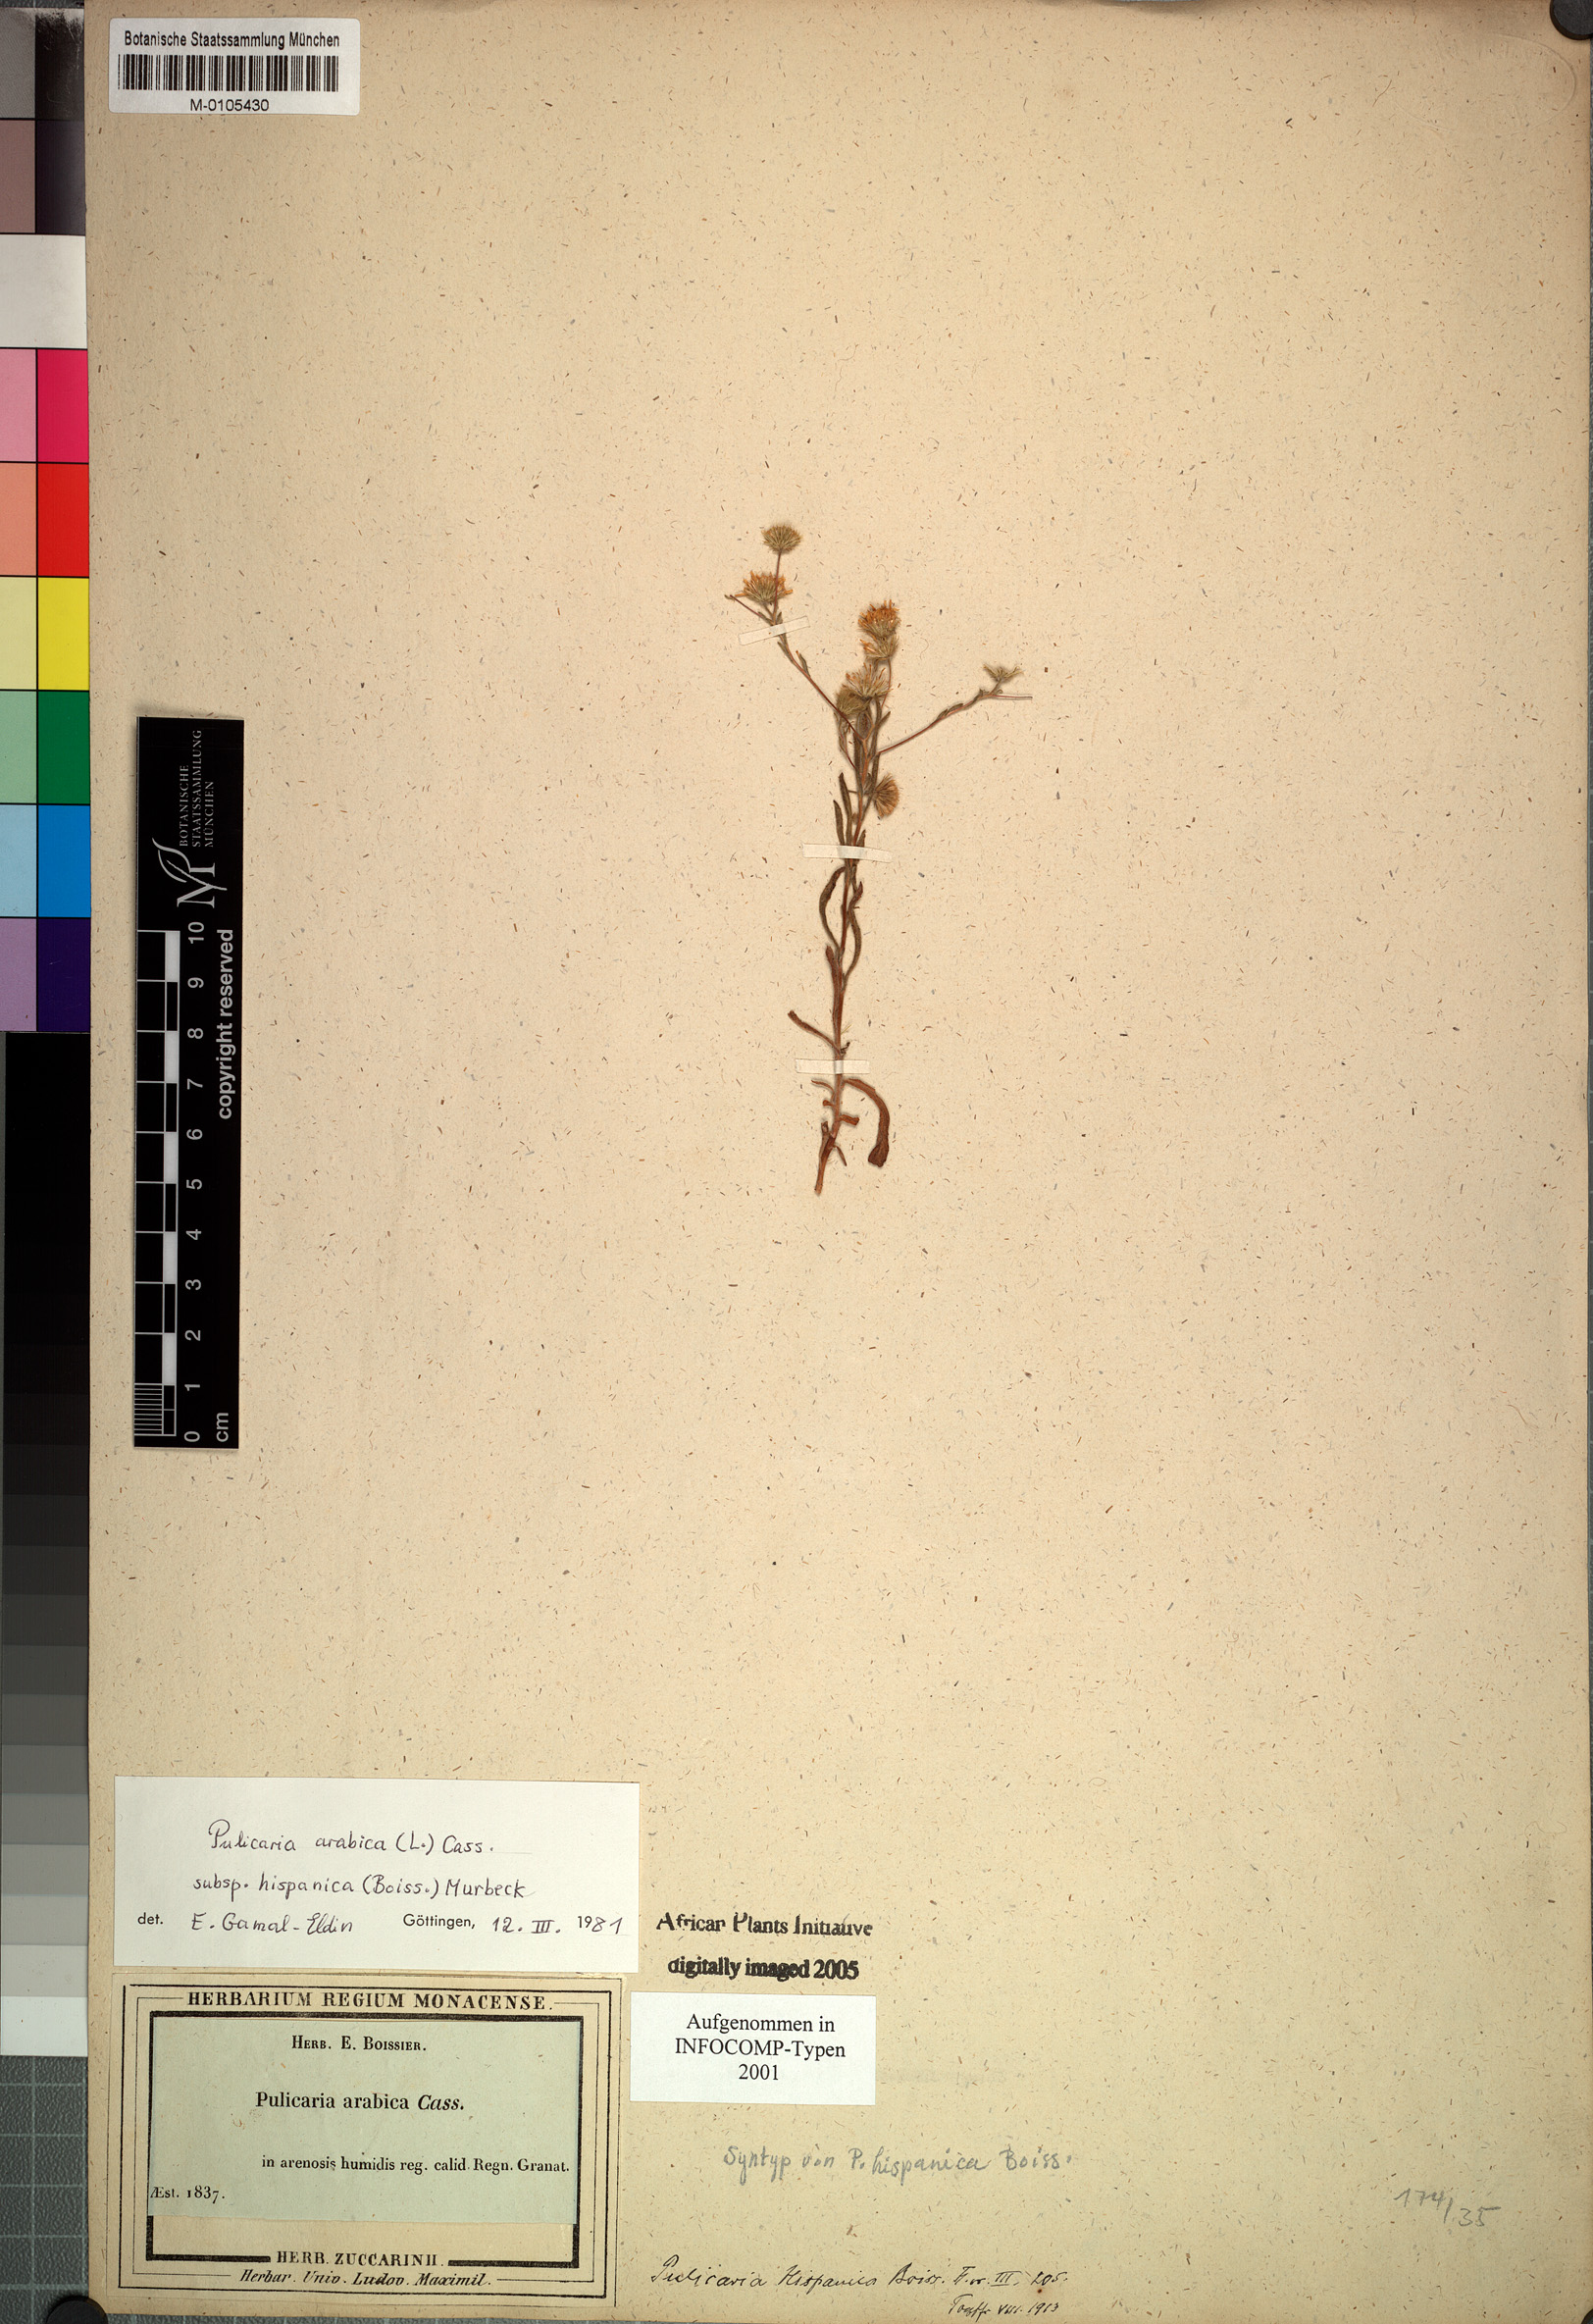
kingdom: Plantae
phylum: Tracheophyta
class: Magnoliopsida
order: Asterales
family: Asteraceae
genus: Pulicaria
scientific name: Pulicaria arabica
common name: Ladies' false fleabane
